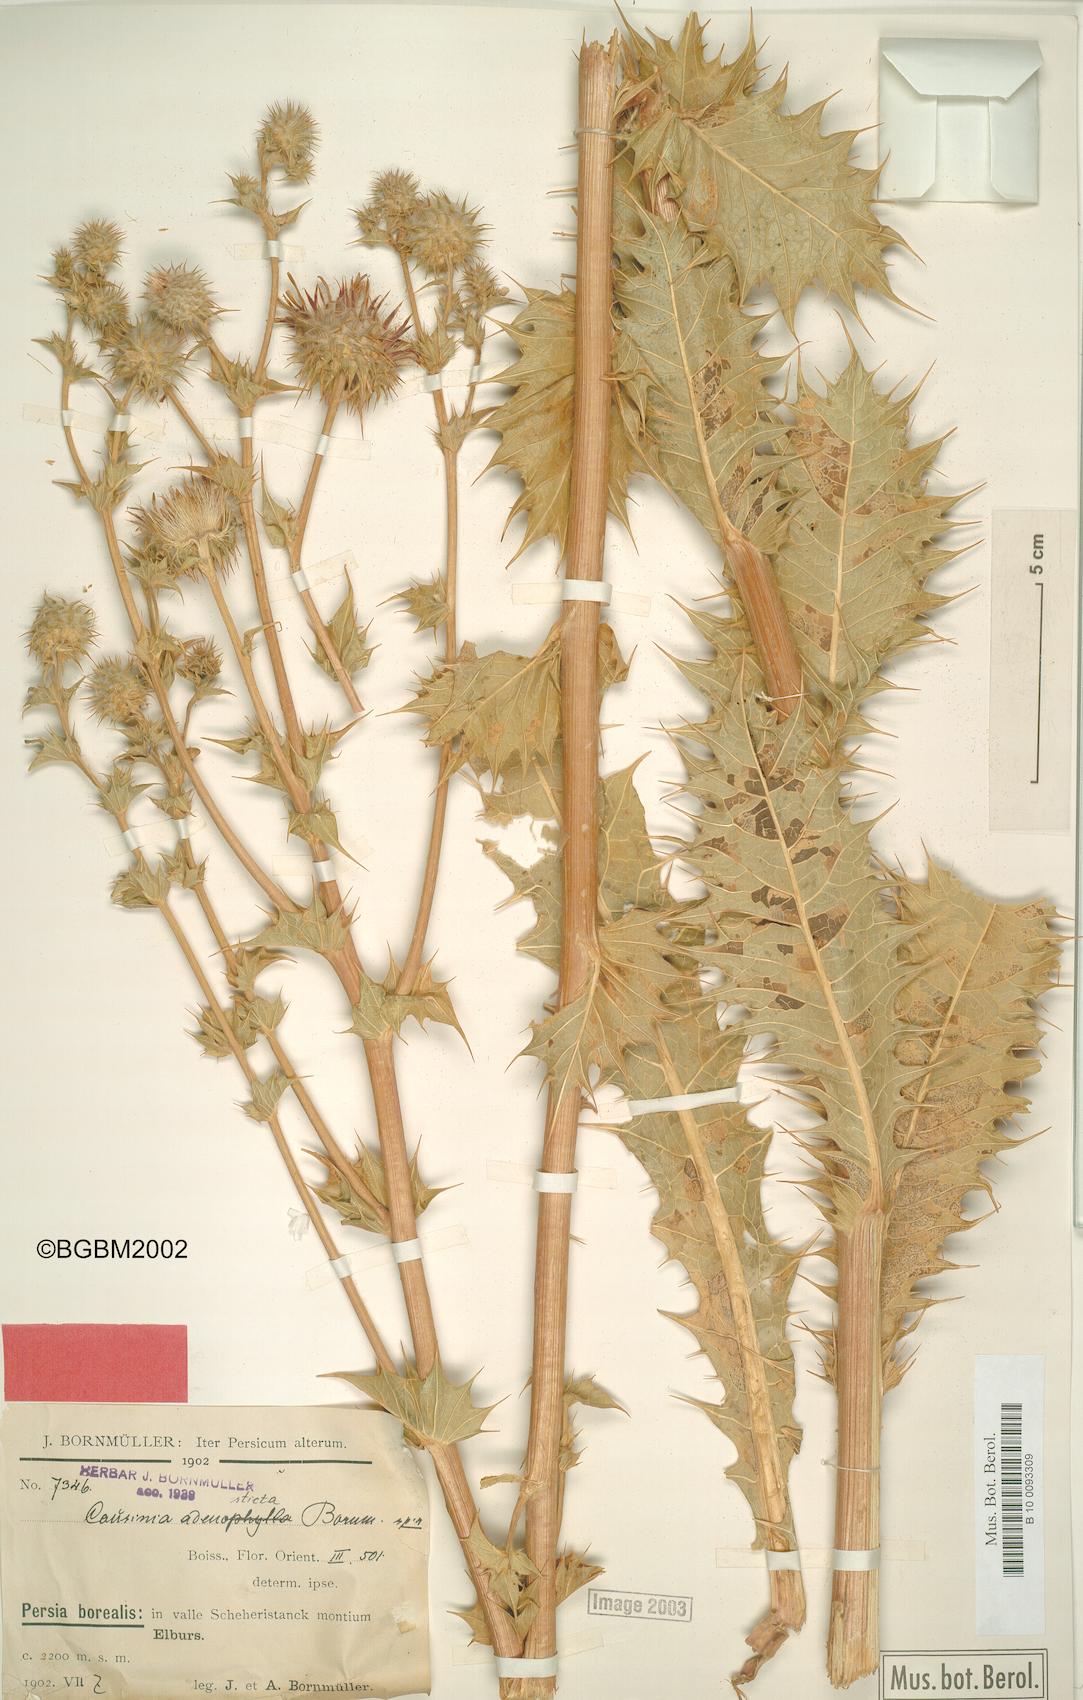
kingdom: Plantae
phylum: Tracheophyta
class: Magnoliopsida
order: Asterales
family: Asteraceae
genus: Cousinia
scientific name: Cousinia adenosticta
